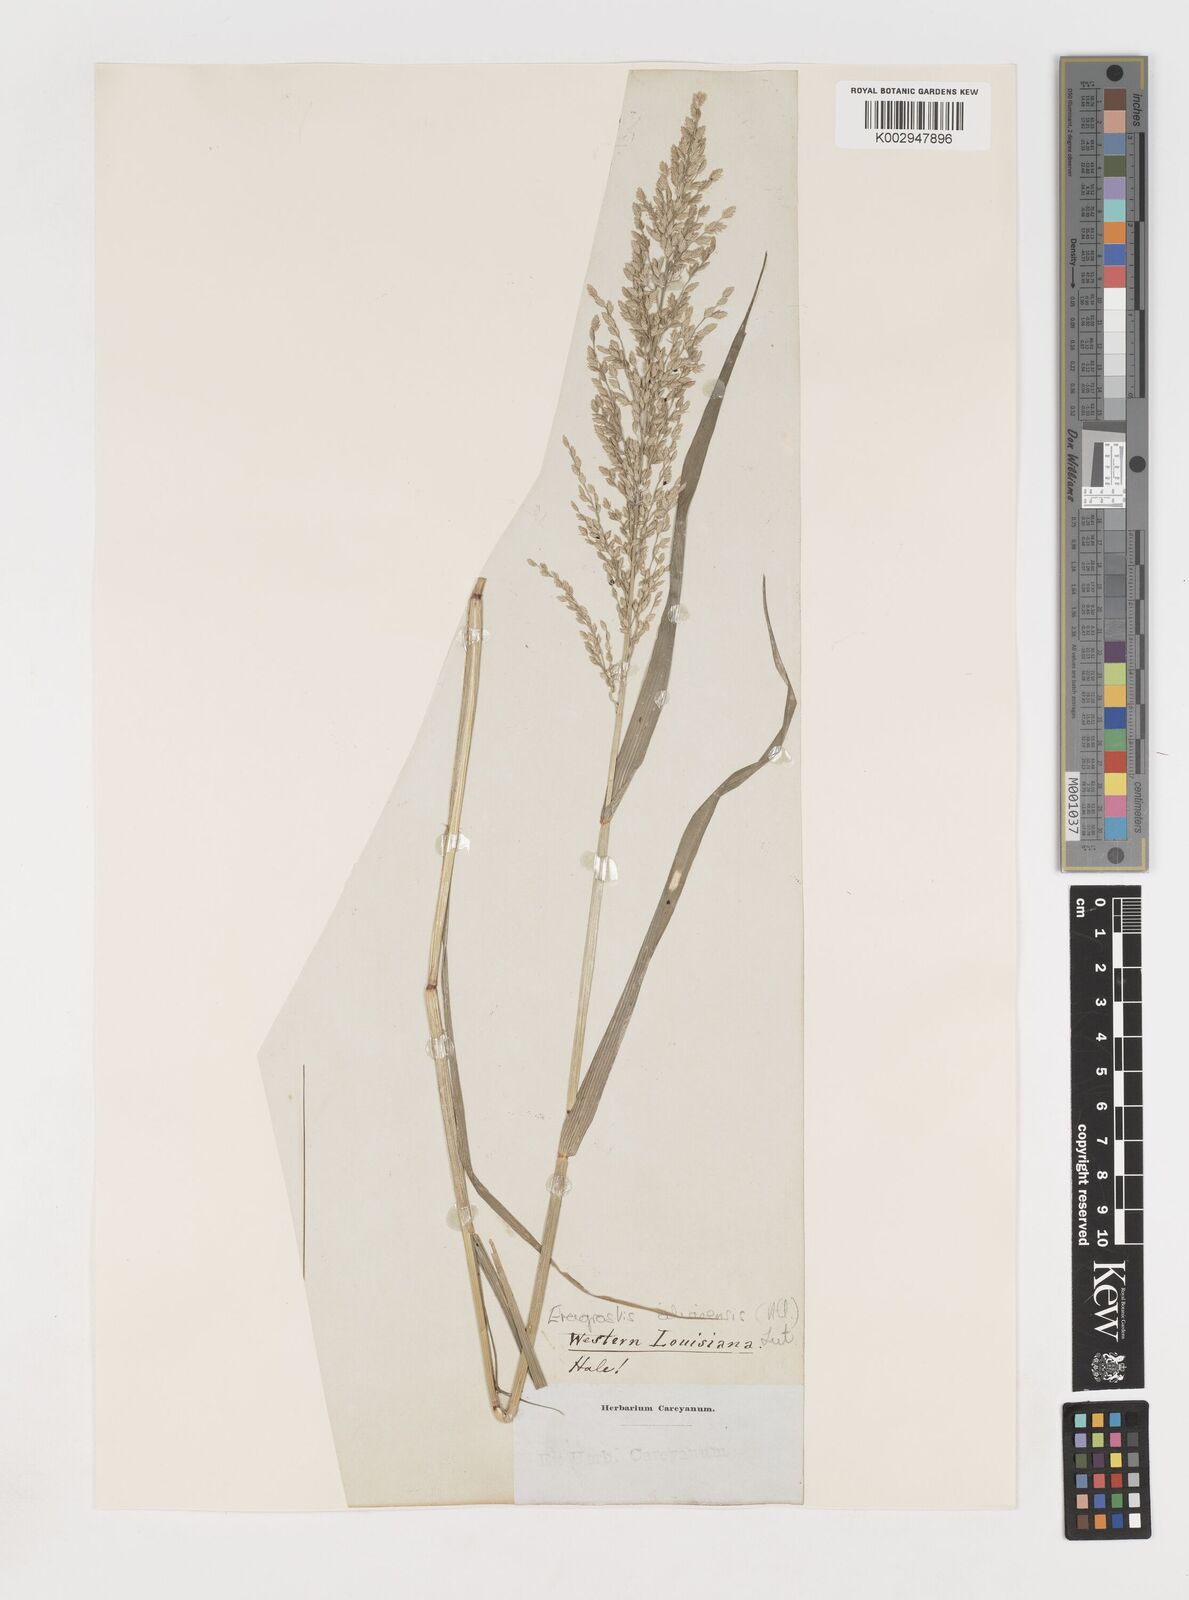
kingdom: Plantae
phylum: Tracheophyta
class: Liliopsida
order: Poales
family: Poaceae
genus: Eragrostis
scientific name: Eragrostis cilianensis
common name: Stinkgrass
